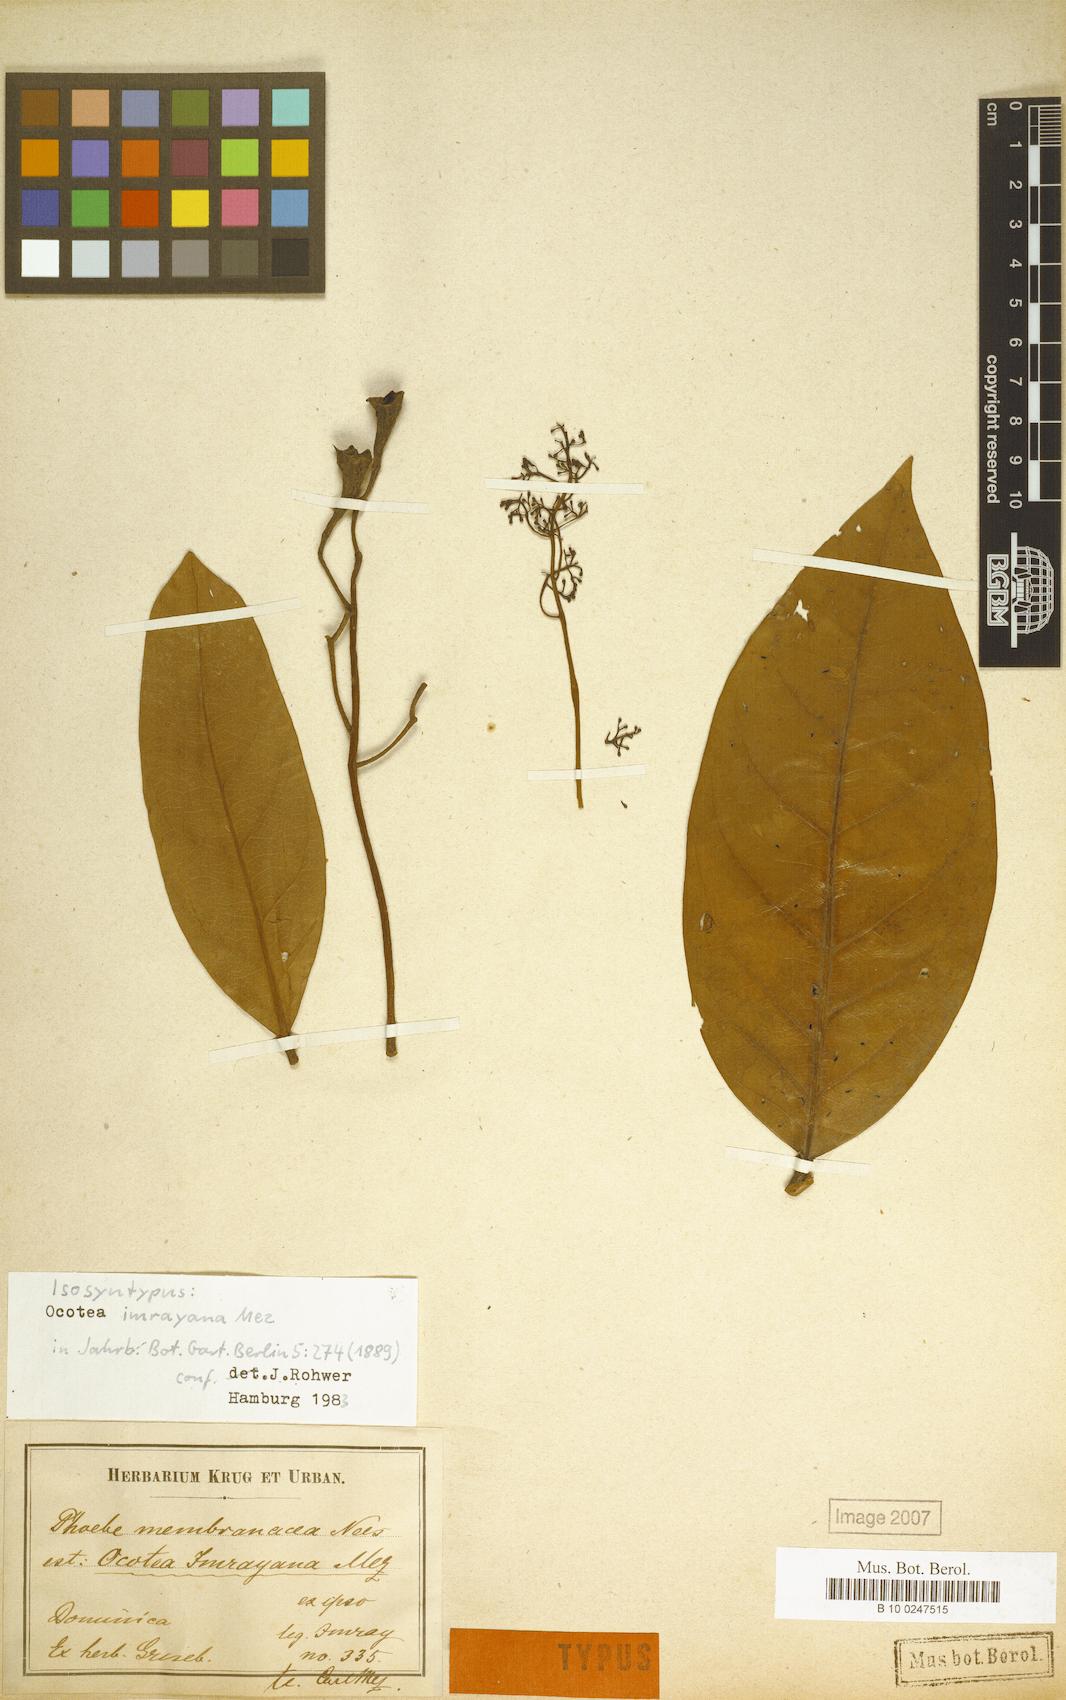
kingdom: Plantae
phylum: Tracheophyta
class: Magnoliopsida
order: Laurales
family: Lauraceae
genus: Ocotea
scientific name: Ocotea imrayana
